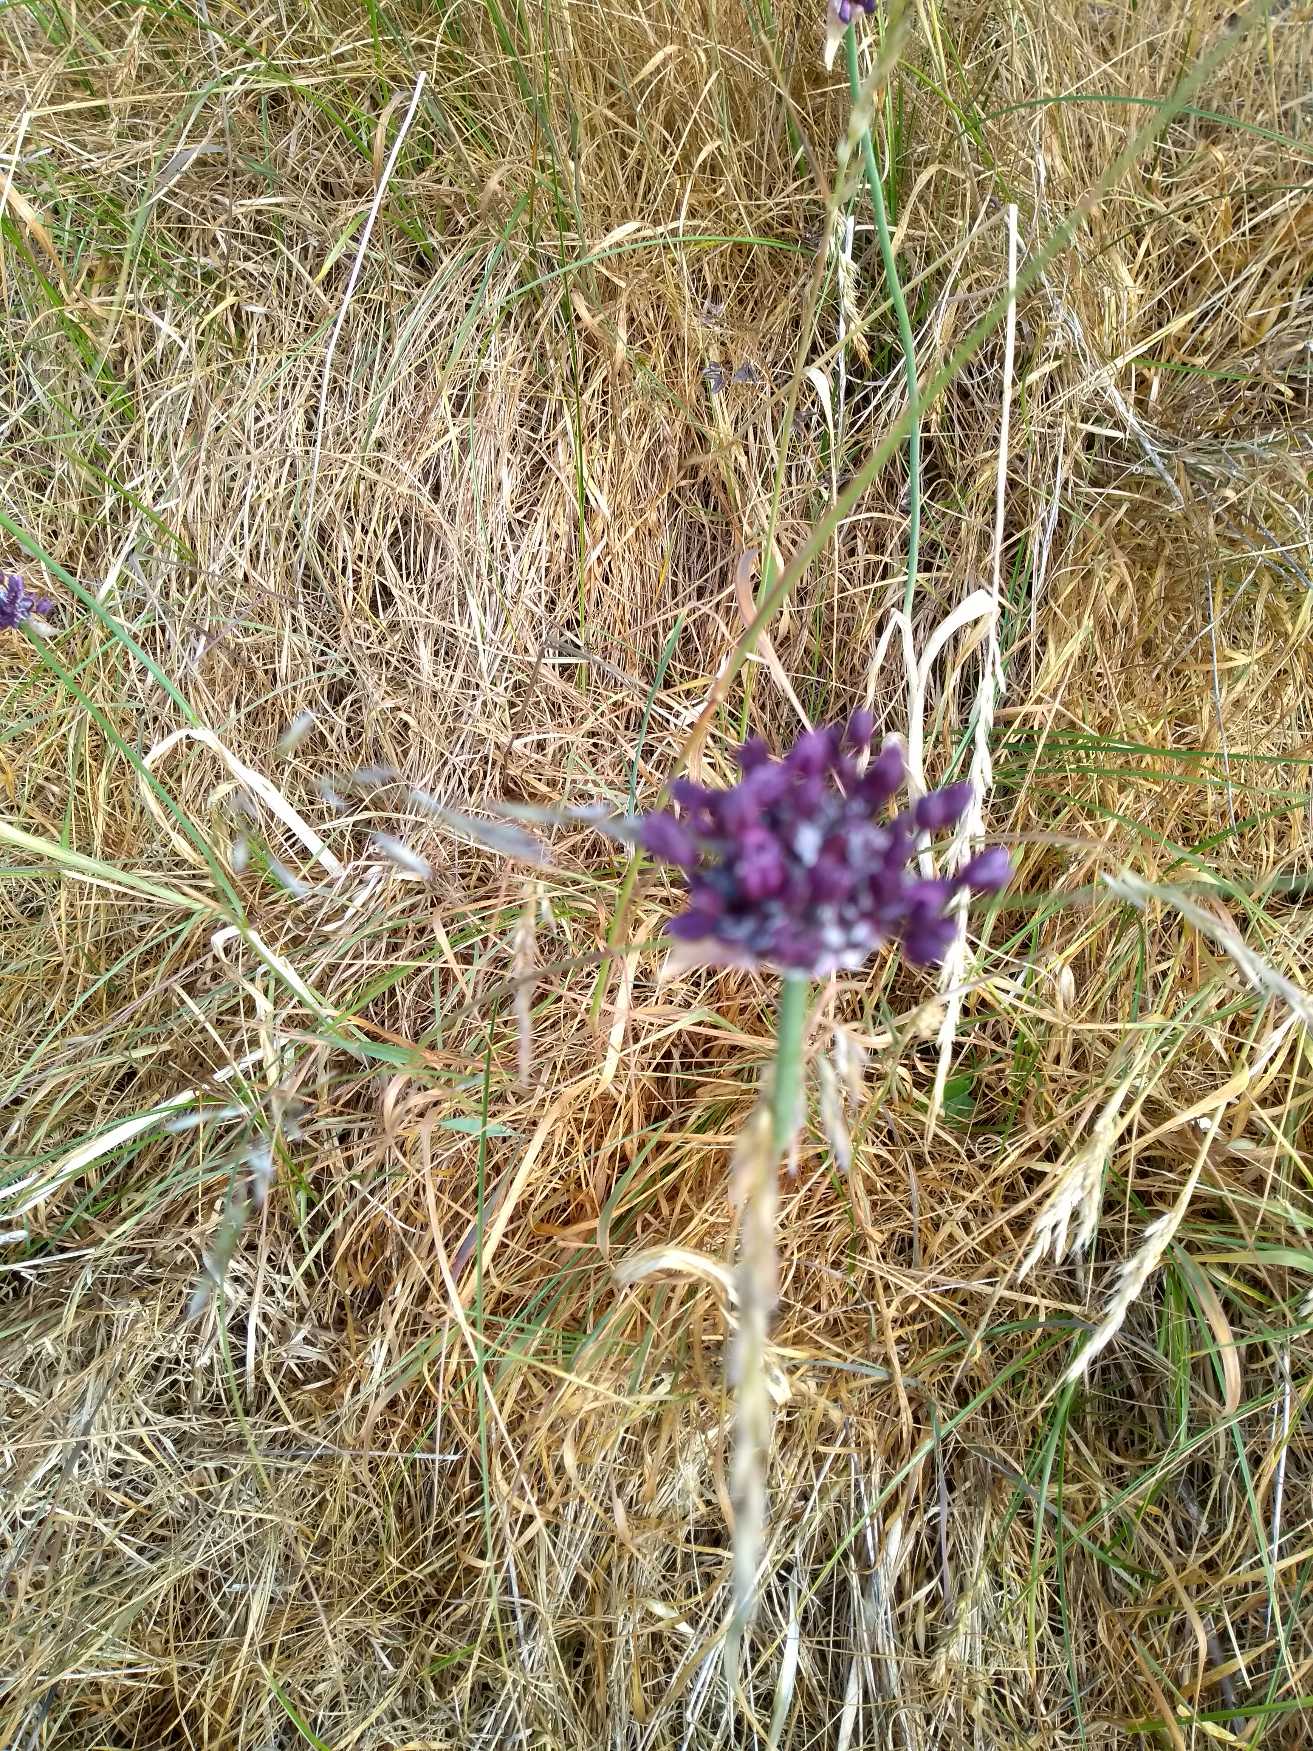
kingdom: Plantae
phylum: Tracheophyta
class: Liliopsida
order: Asparagales
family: Amaryllidaceae
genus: Allium
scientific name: Allium scorodoprasum
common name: Skov-løg
